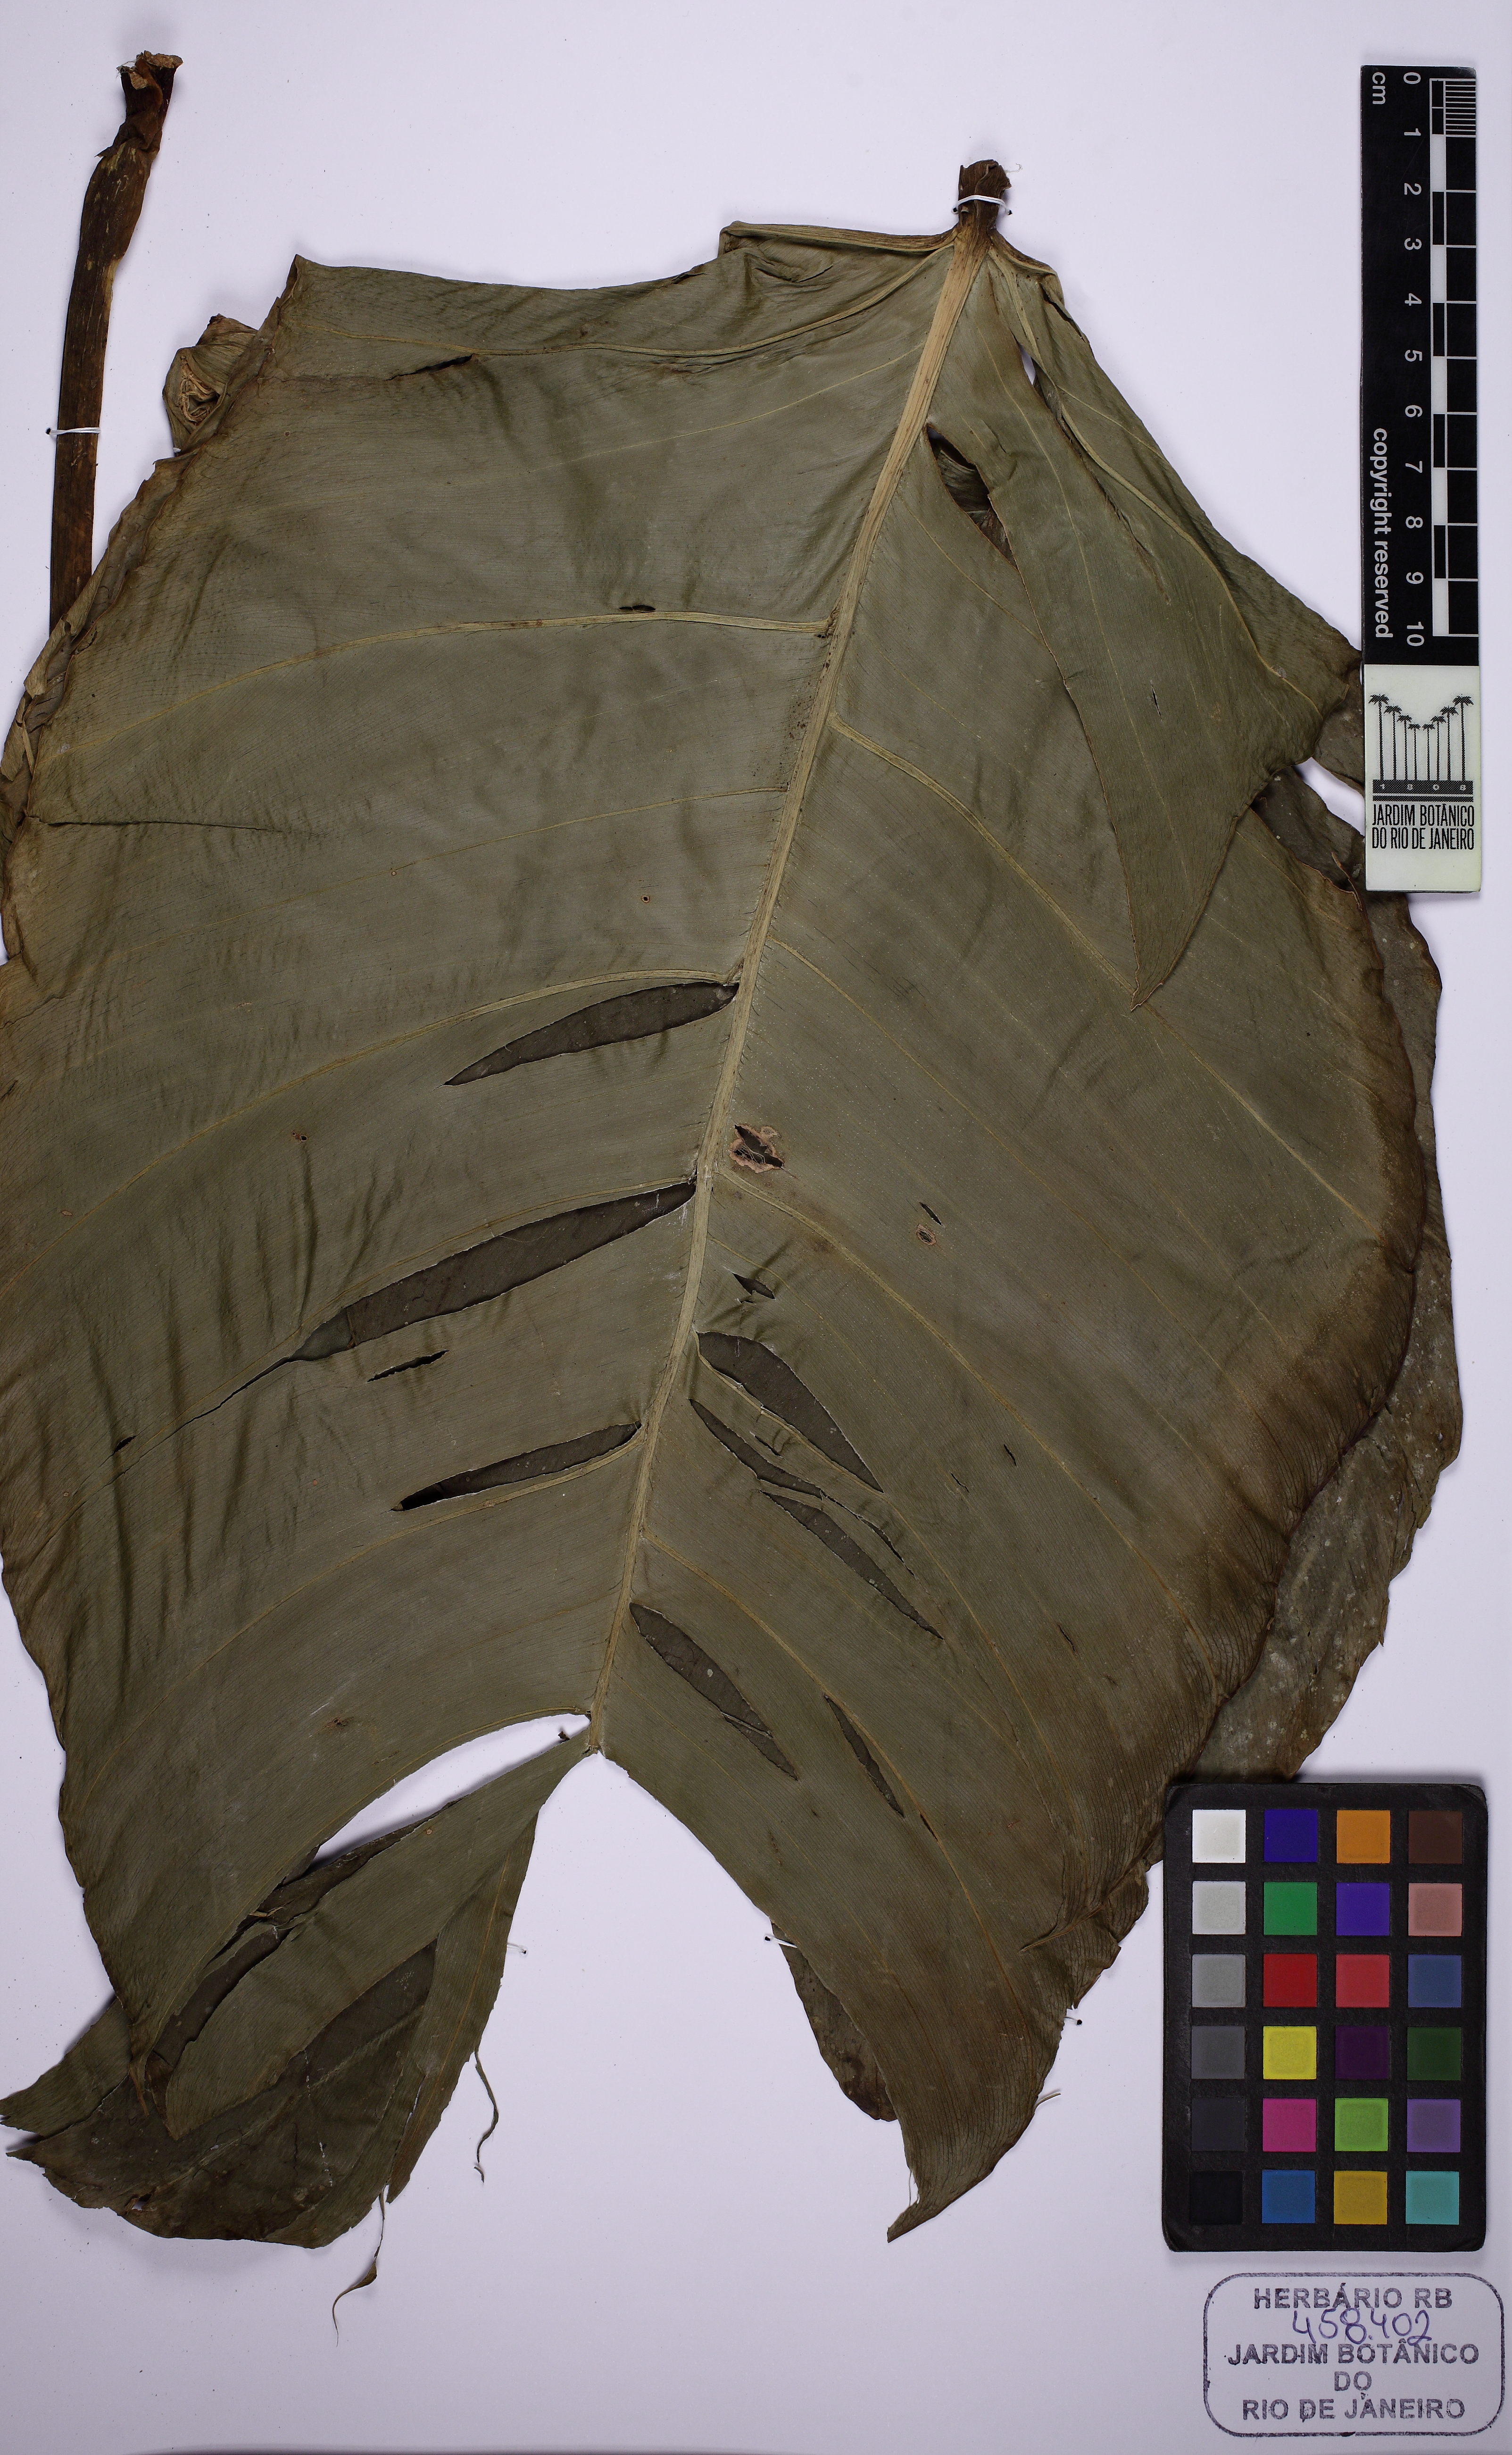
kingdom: Plantae
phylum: Tracheophyta
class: Liliopsida
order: Alismatales
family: Araceae
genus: Philodendron
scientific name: Philodendron applanatum
